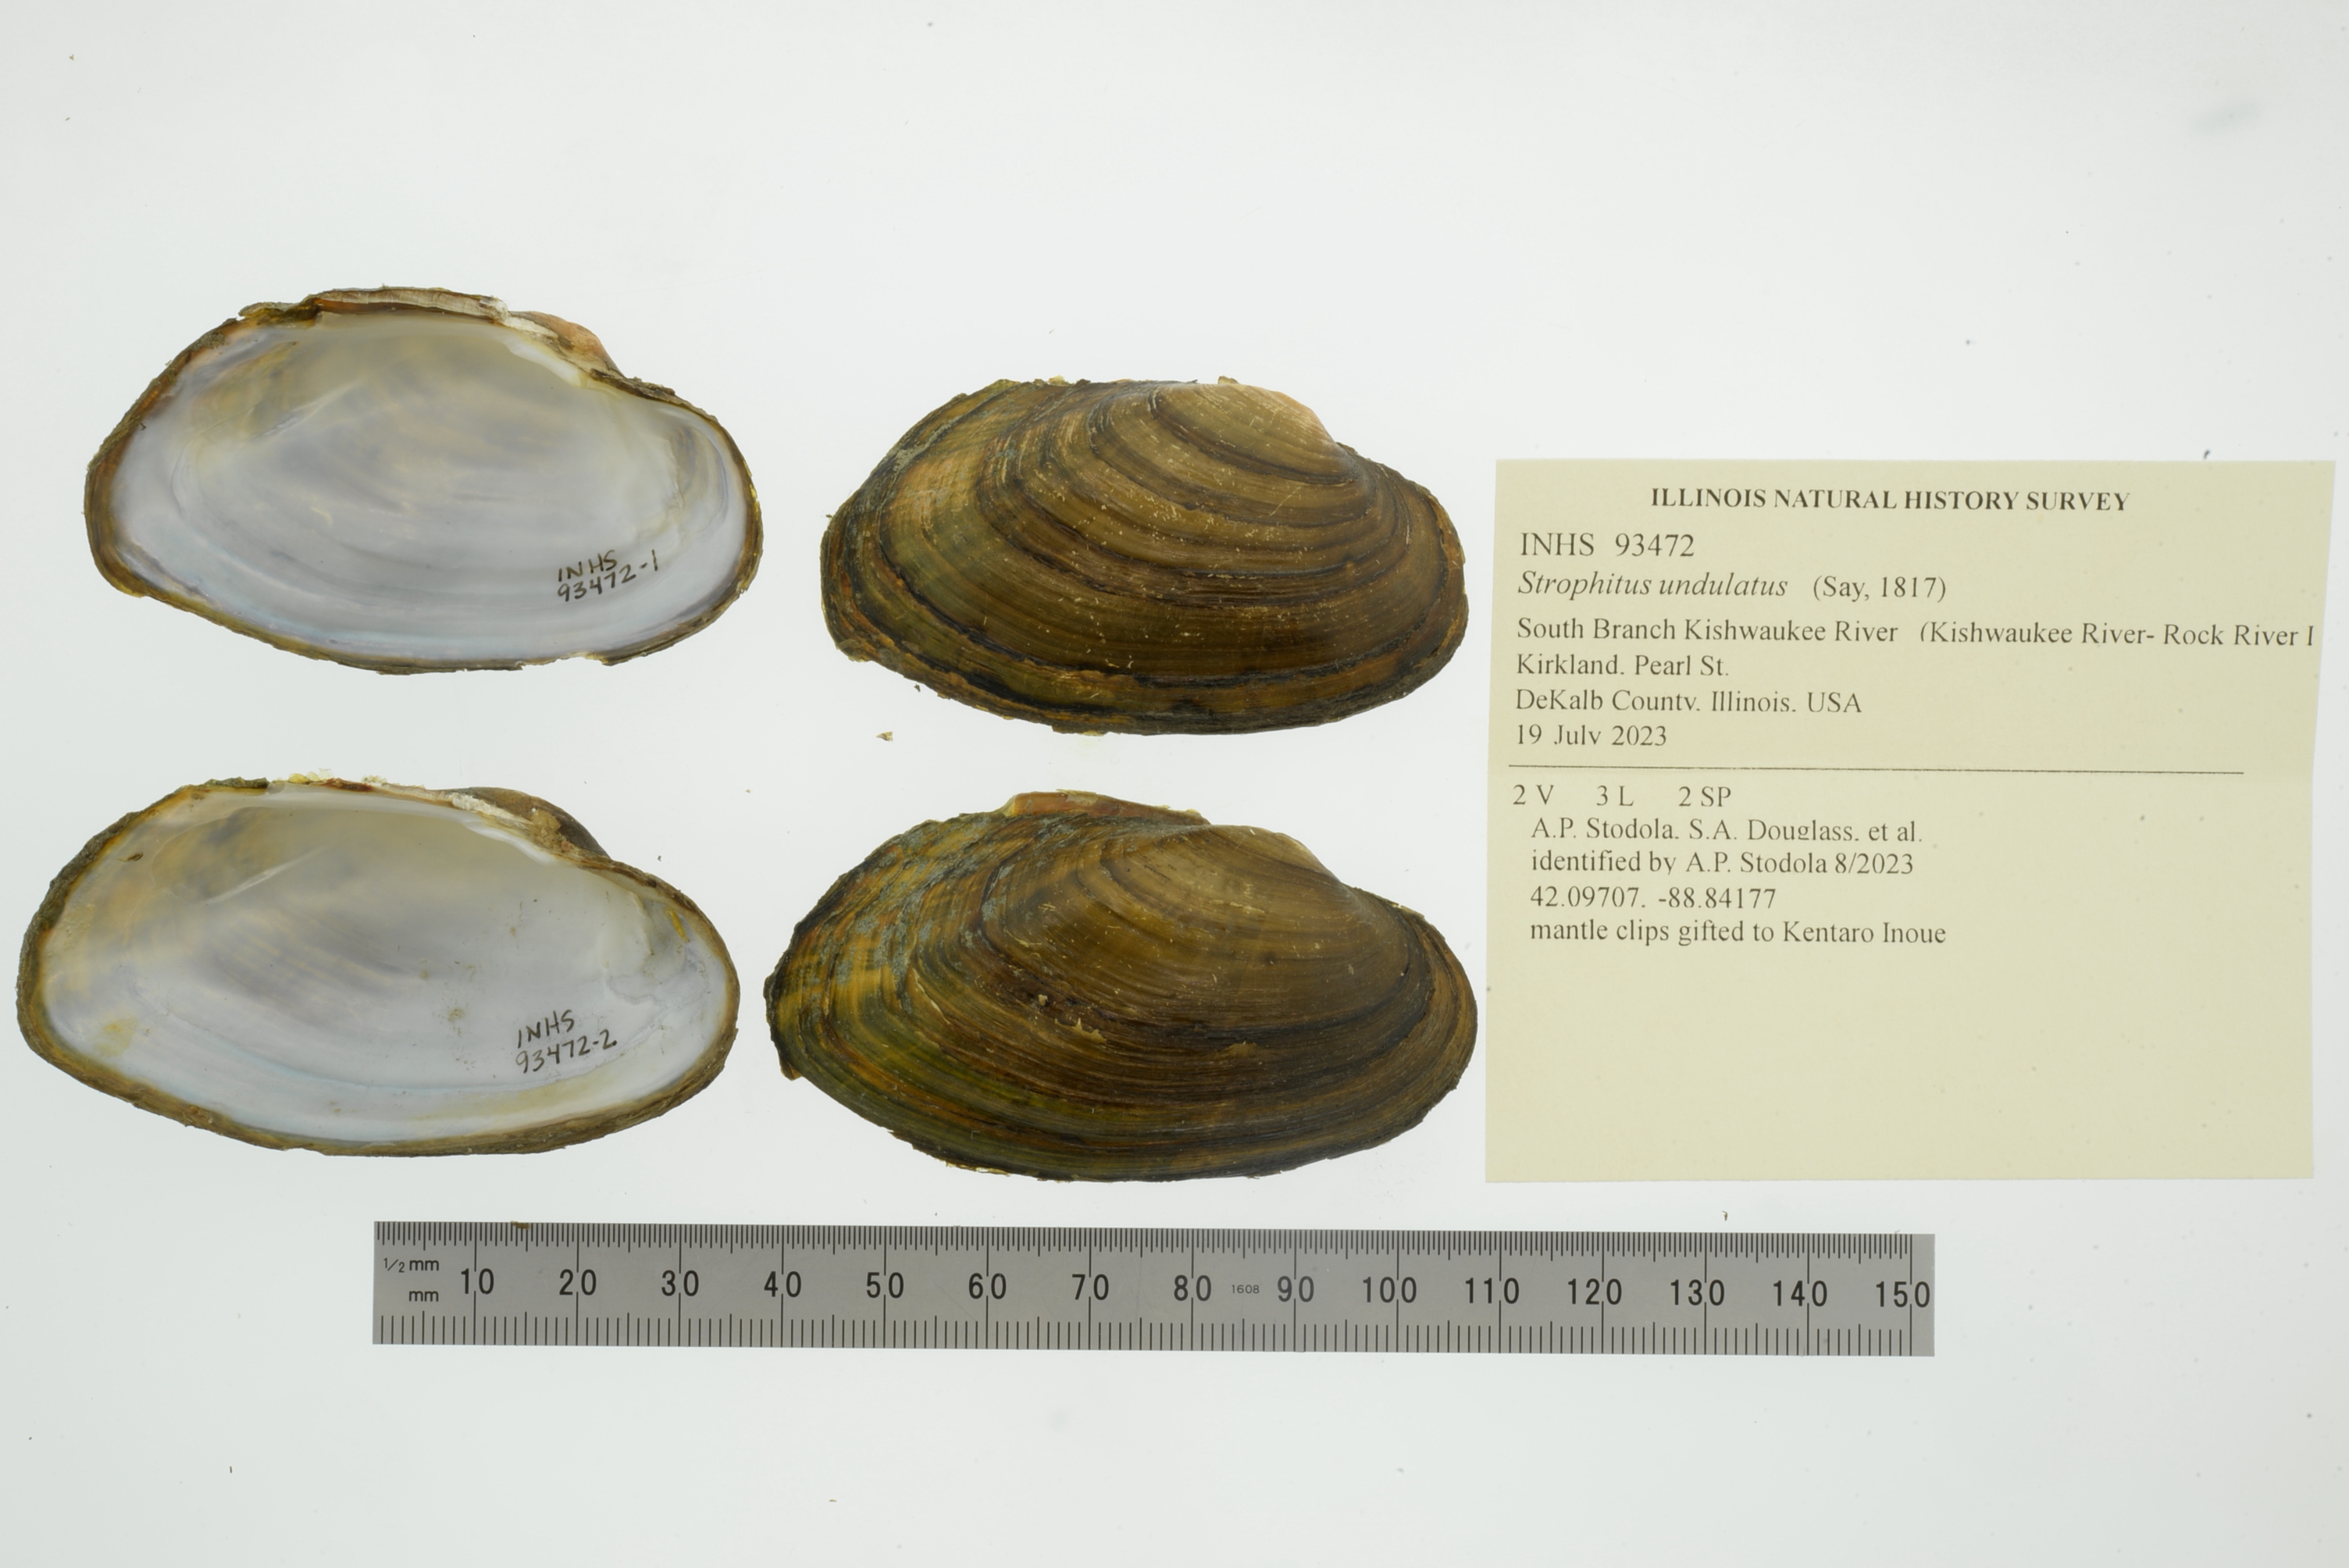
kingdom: Animalia
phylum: Mollusca
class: Bivalvia
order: Unionida
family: Unionidae
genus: Strophitus
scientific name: Strophitus undulatus
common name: Creeper
